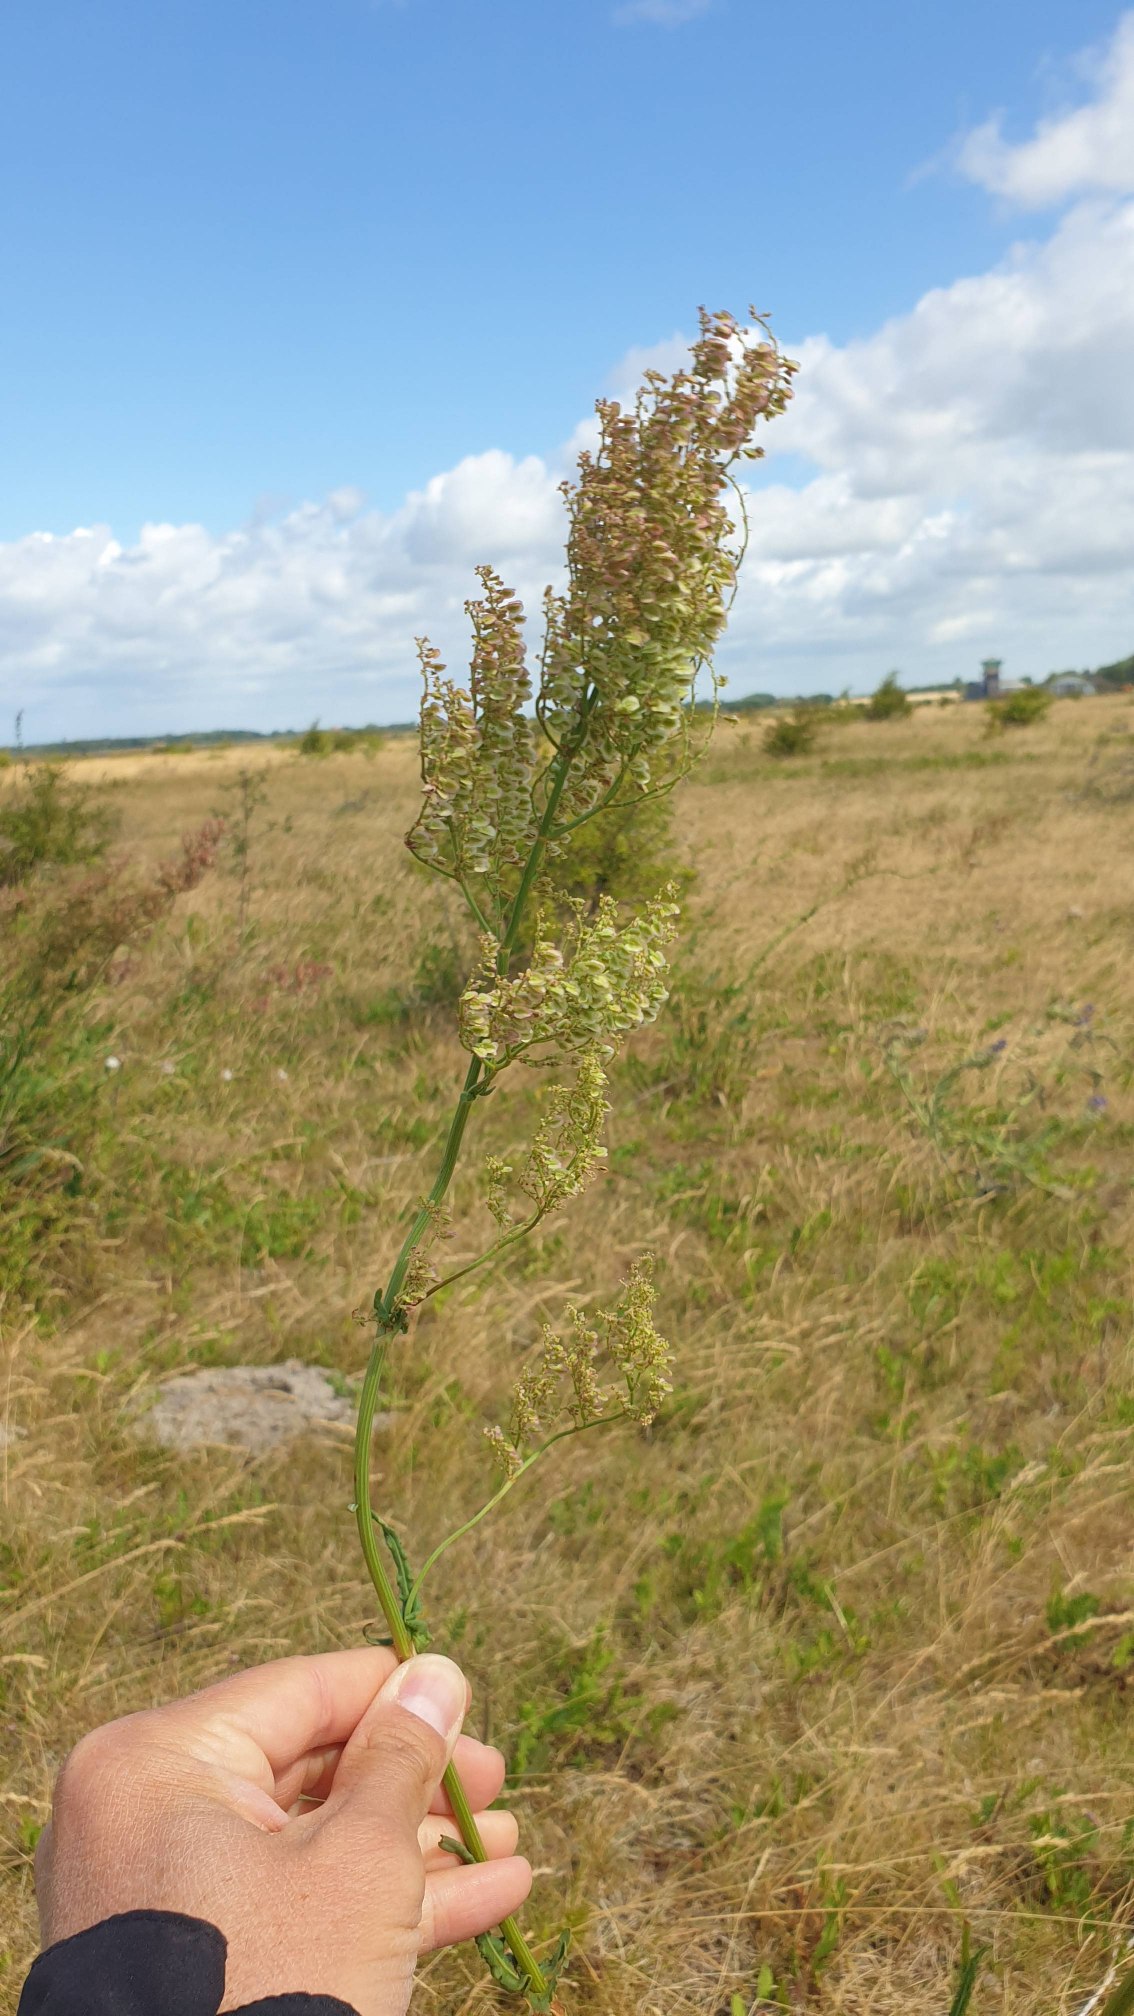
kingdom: Plantae
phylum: Tracheophyta
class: Magnoliopsida
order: Caryophyllales
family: Polygonaceae
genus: Rumex
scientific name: Rumex thyrsiflorus
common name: Dusk-syre
